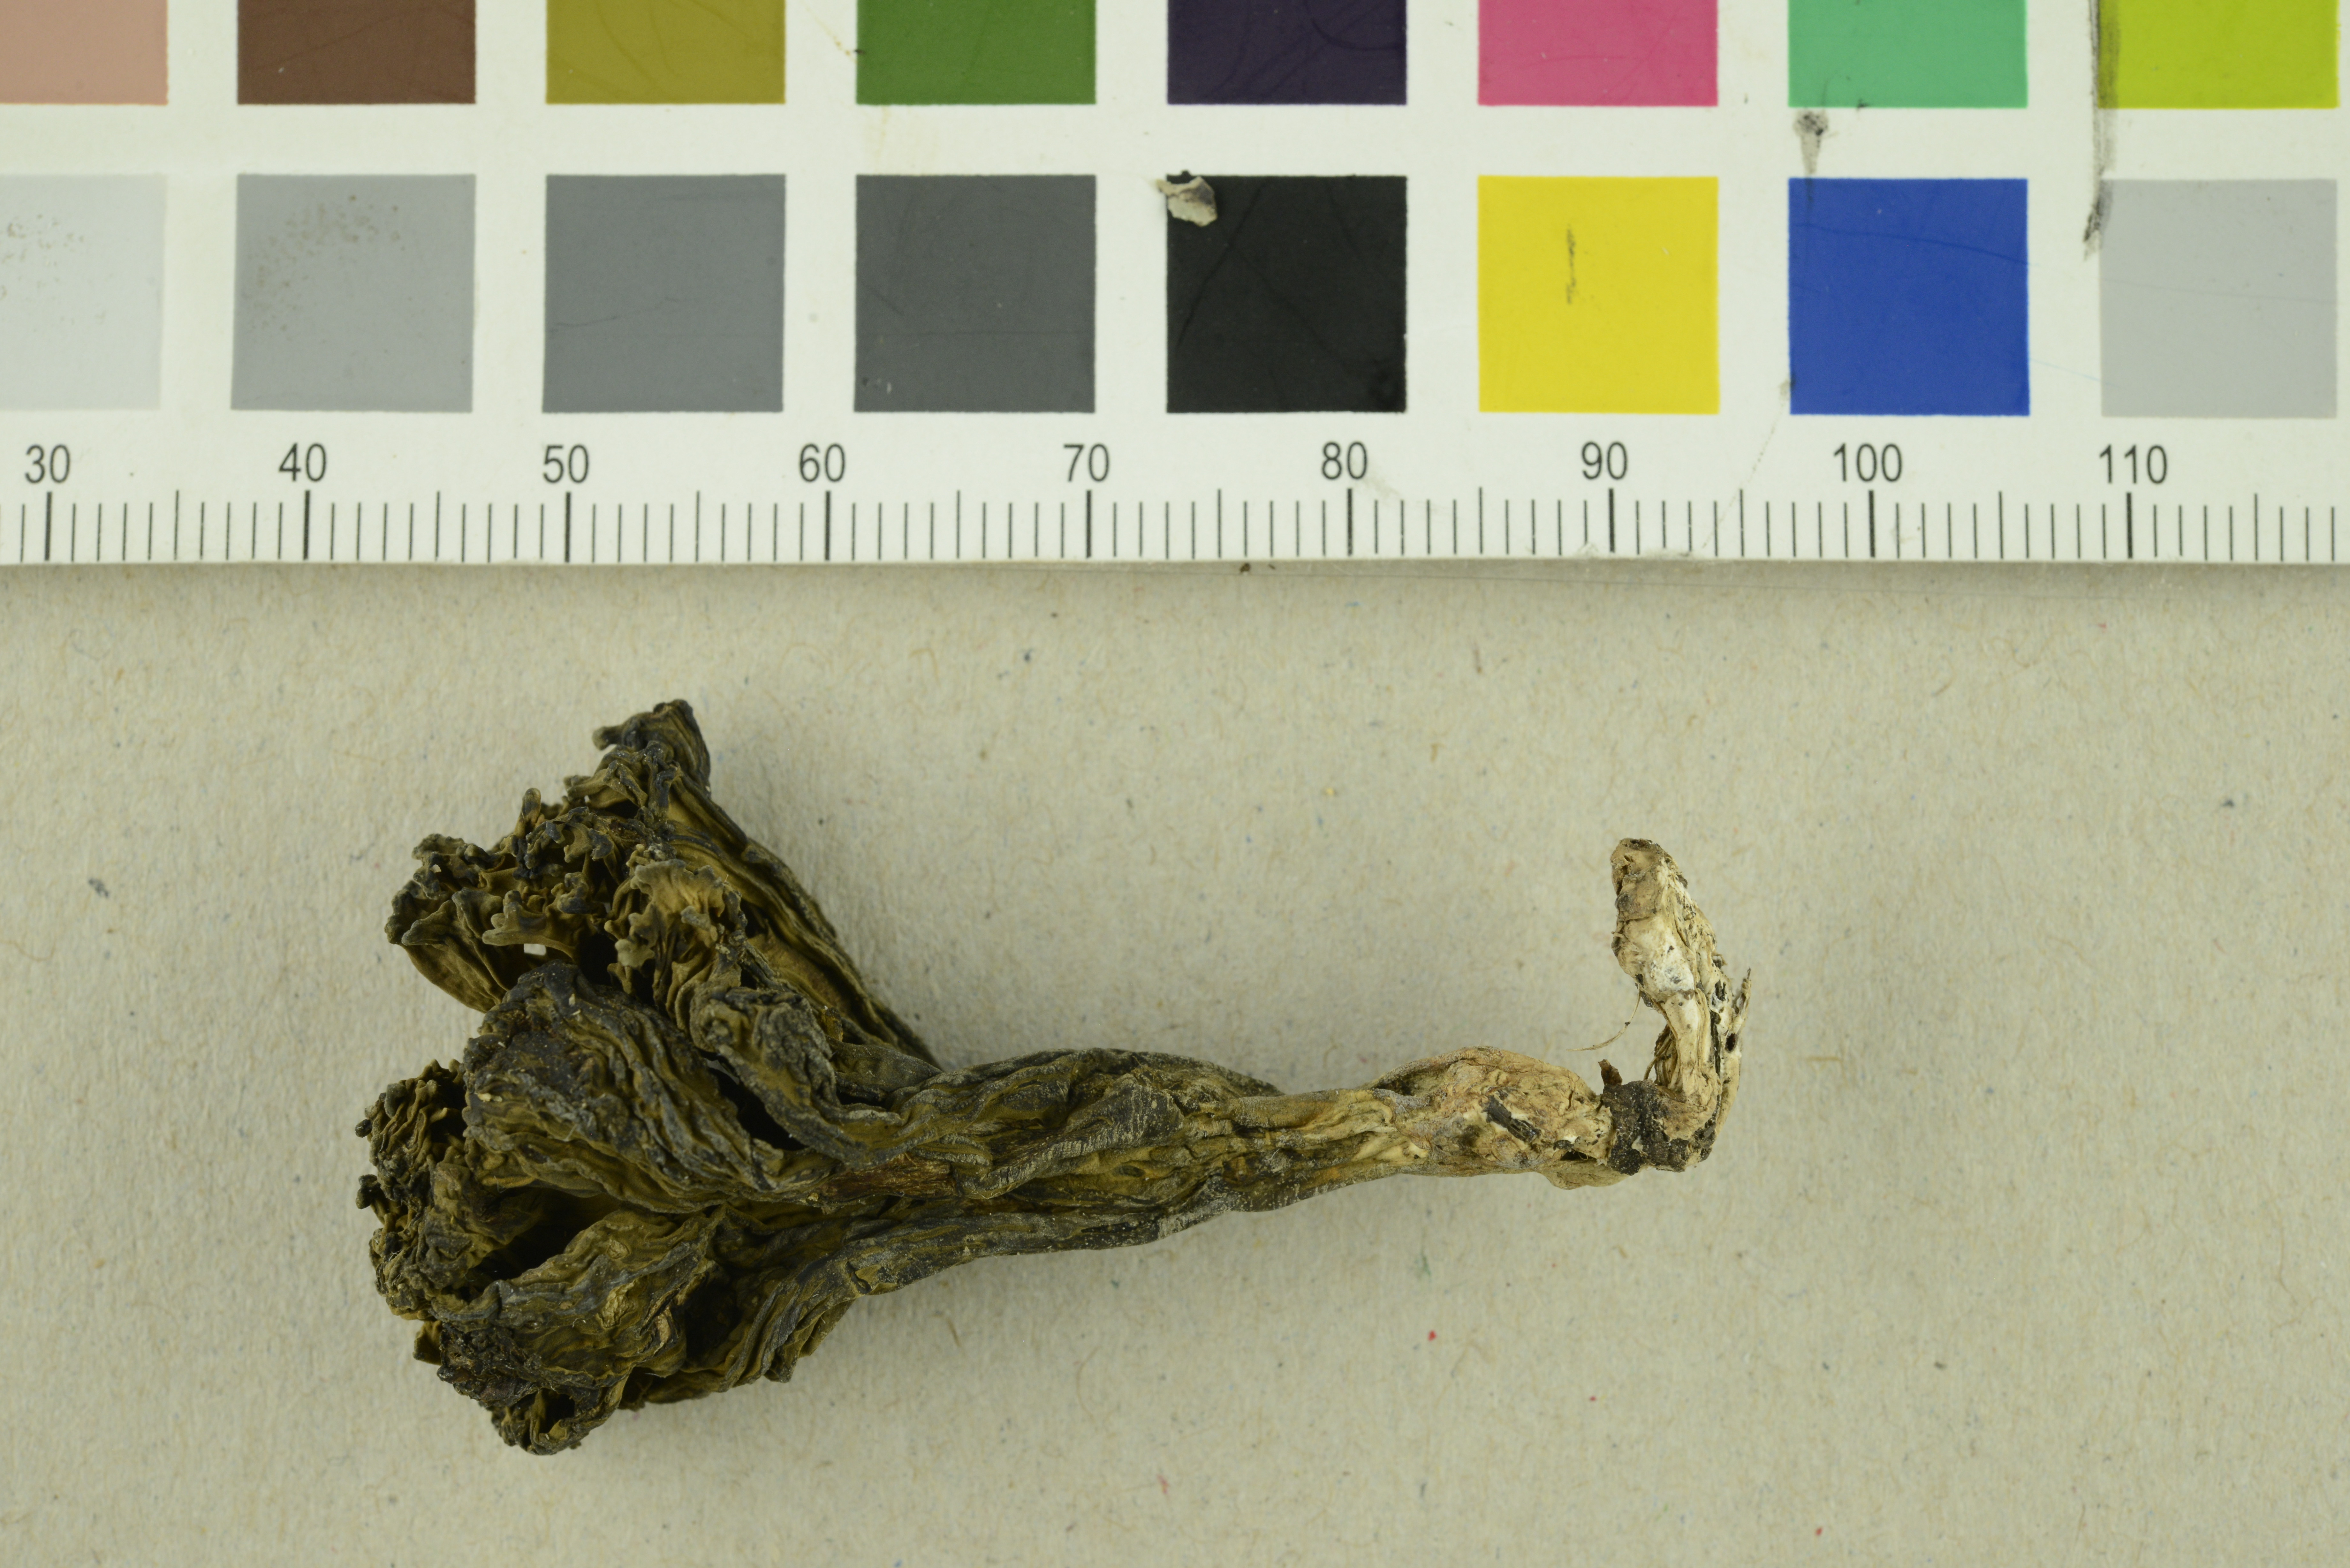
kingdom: Fungi
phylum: Basidiomycota
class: Agaricomycetes
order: Gomphales
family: Gomphaceae
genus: Phaeoclavulina
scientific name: Phaeoclavulina macrospora
